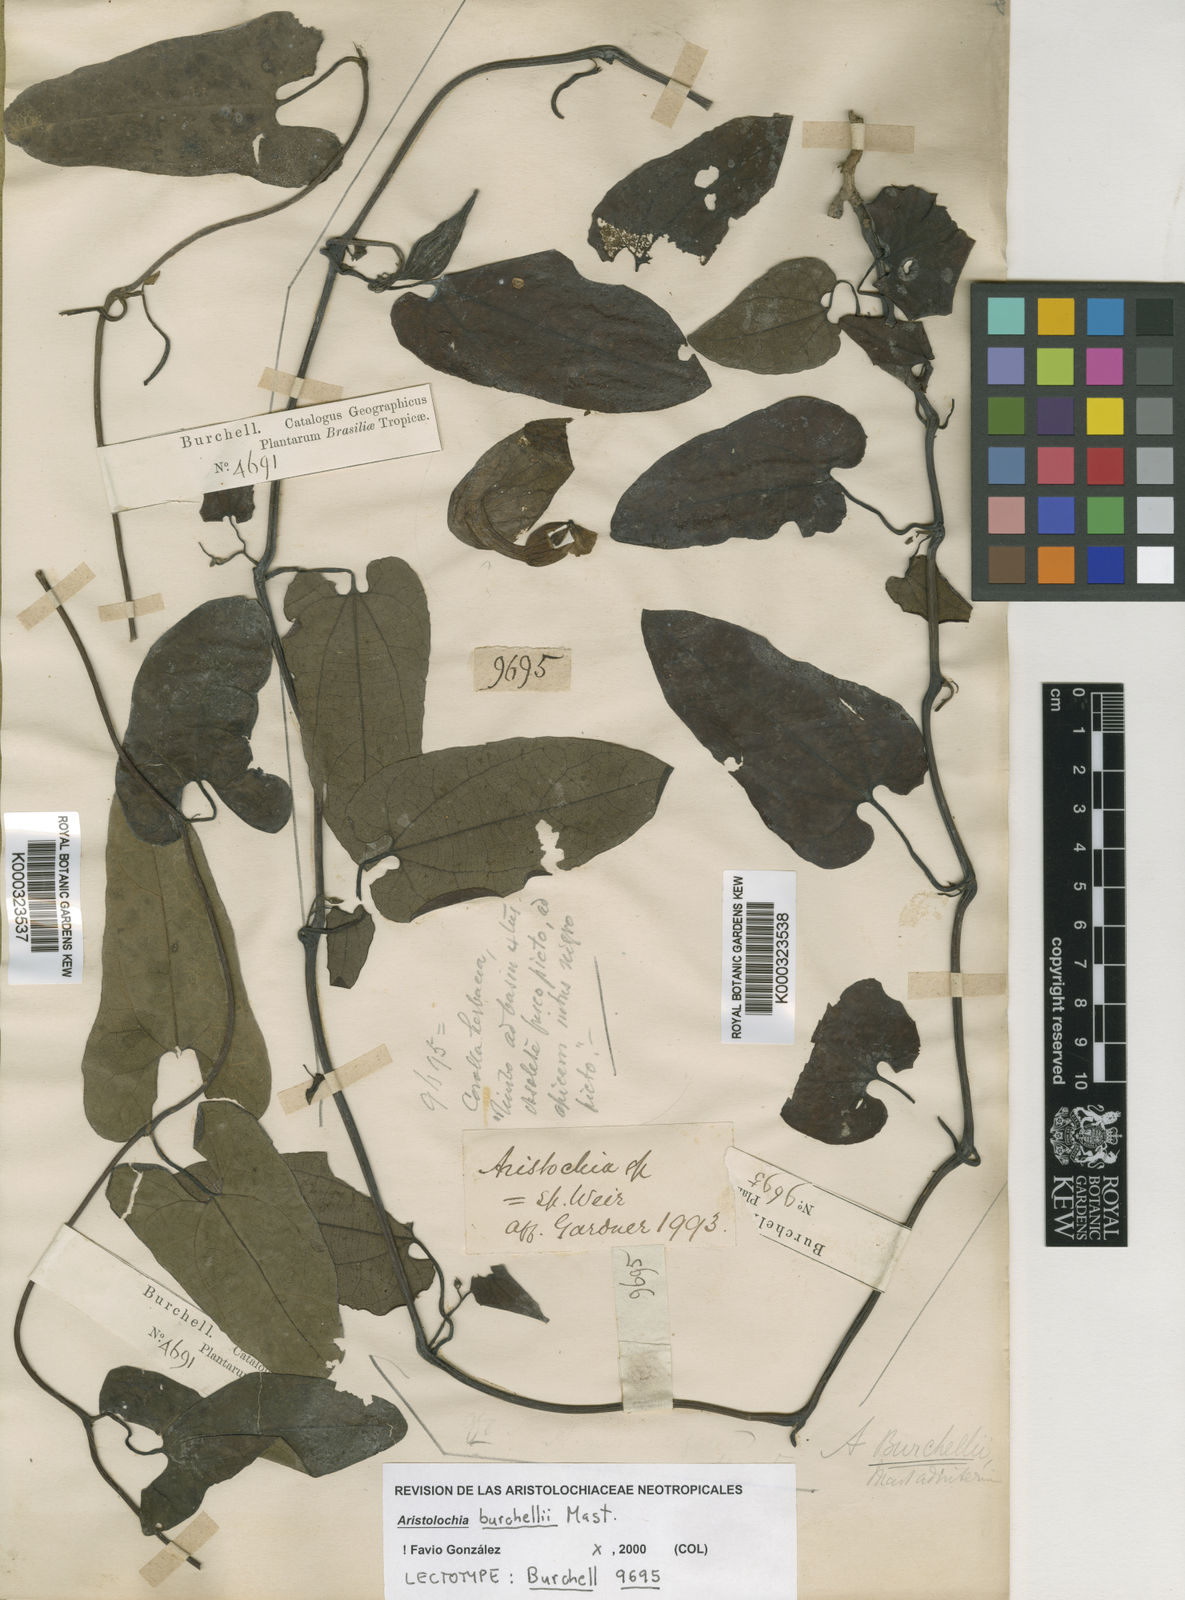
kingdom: Plantae
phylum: Tracheophyta
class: Magnoliopsida
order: Piperales
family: Aristolochiaceae
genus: Aristolochia
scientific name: Aristolochia burchellii
